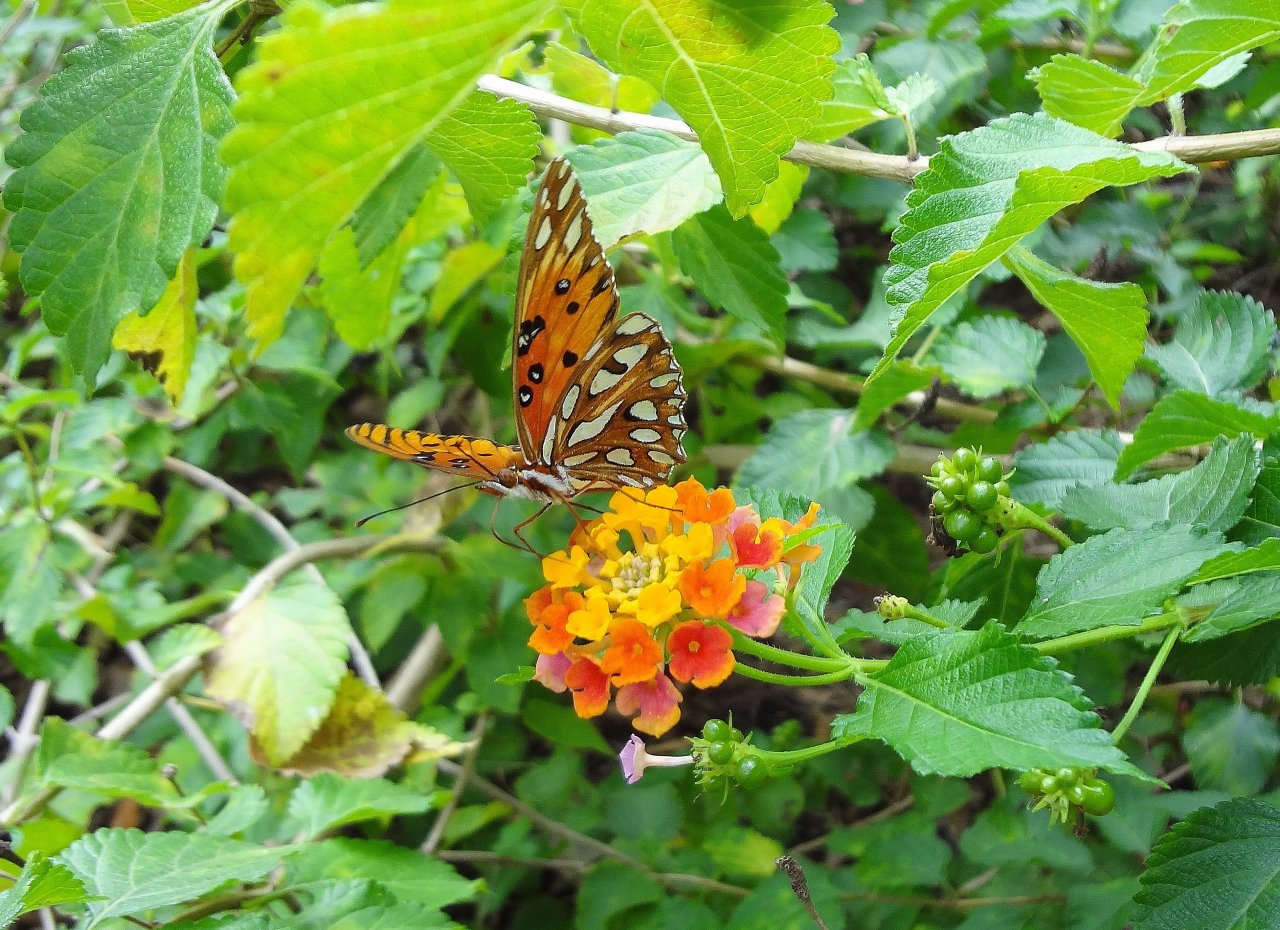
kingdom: Animalia
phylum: Arthropoda
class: Insecta
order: Lepidoptera
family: Nymphalidae
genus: Dione
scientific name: Dione vanillae
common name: Gulf Fritillary
